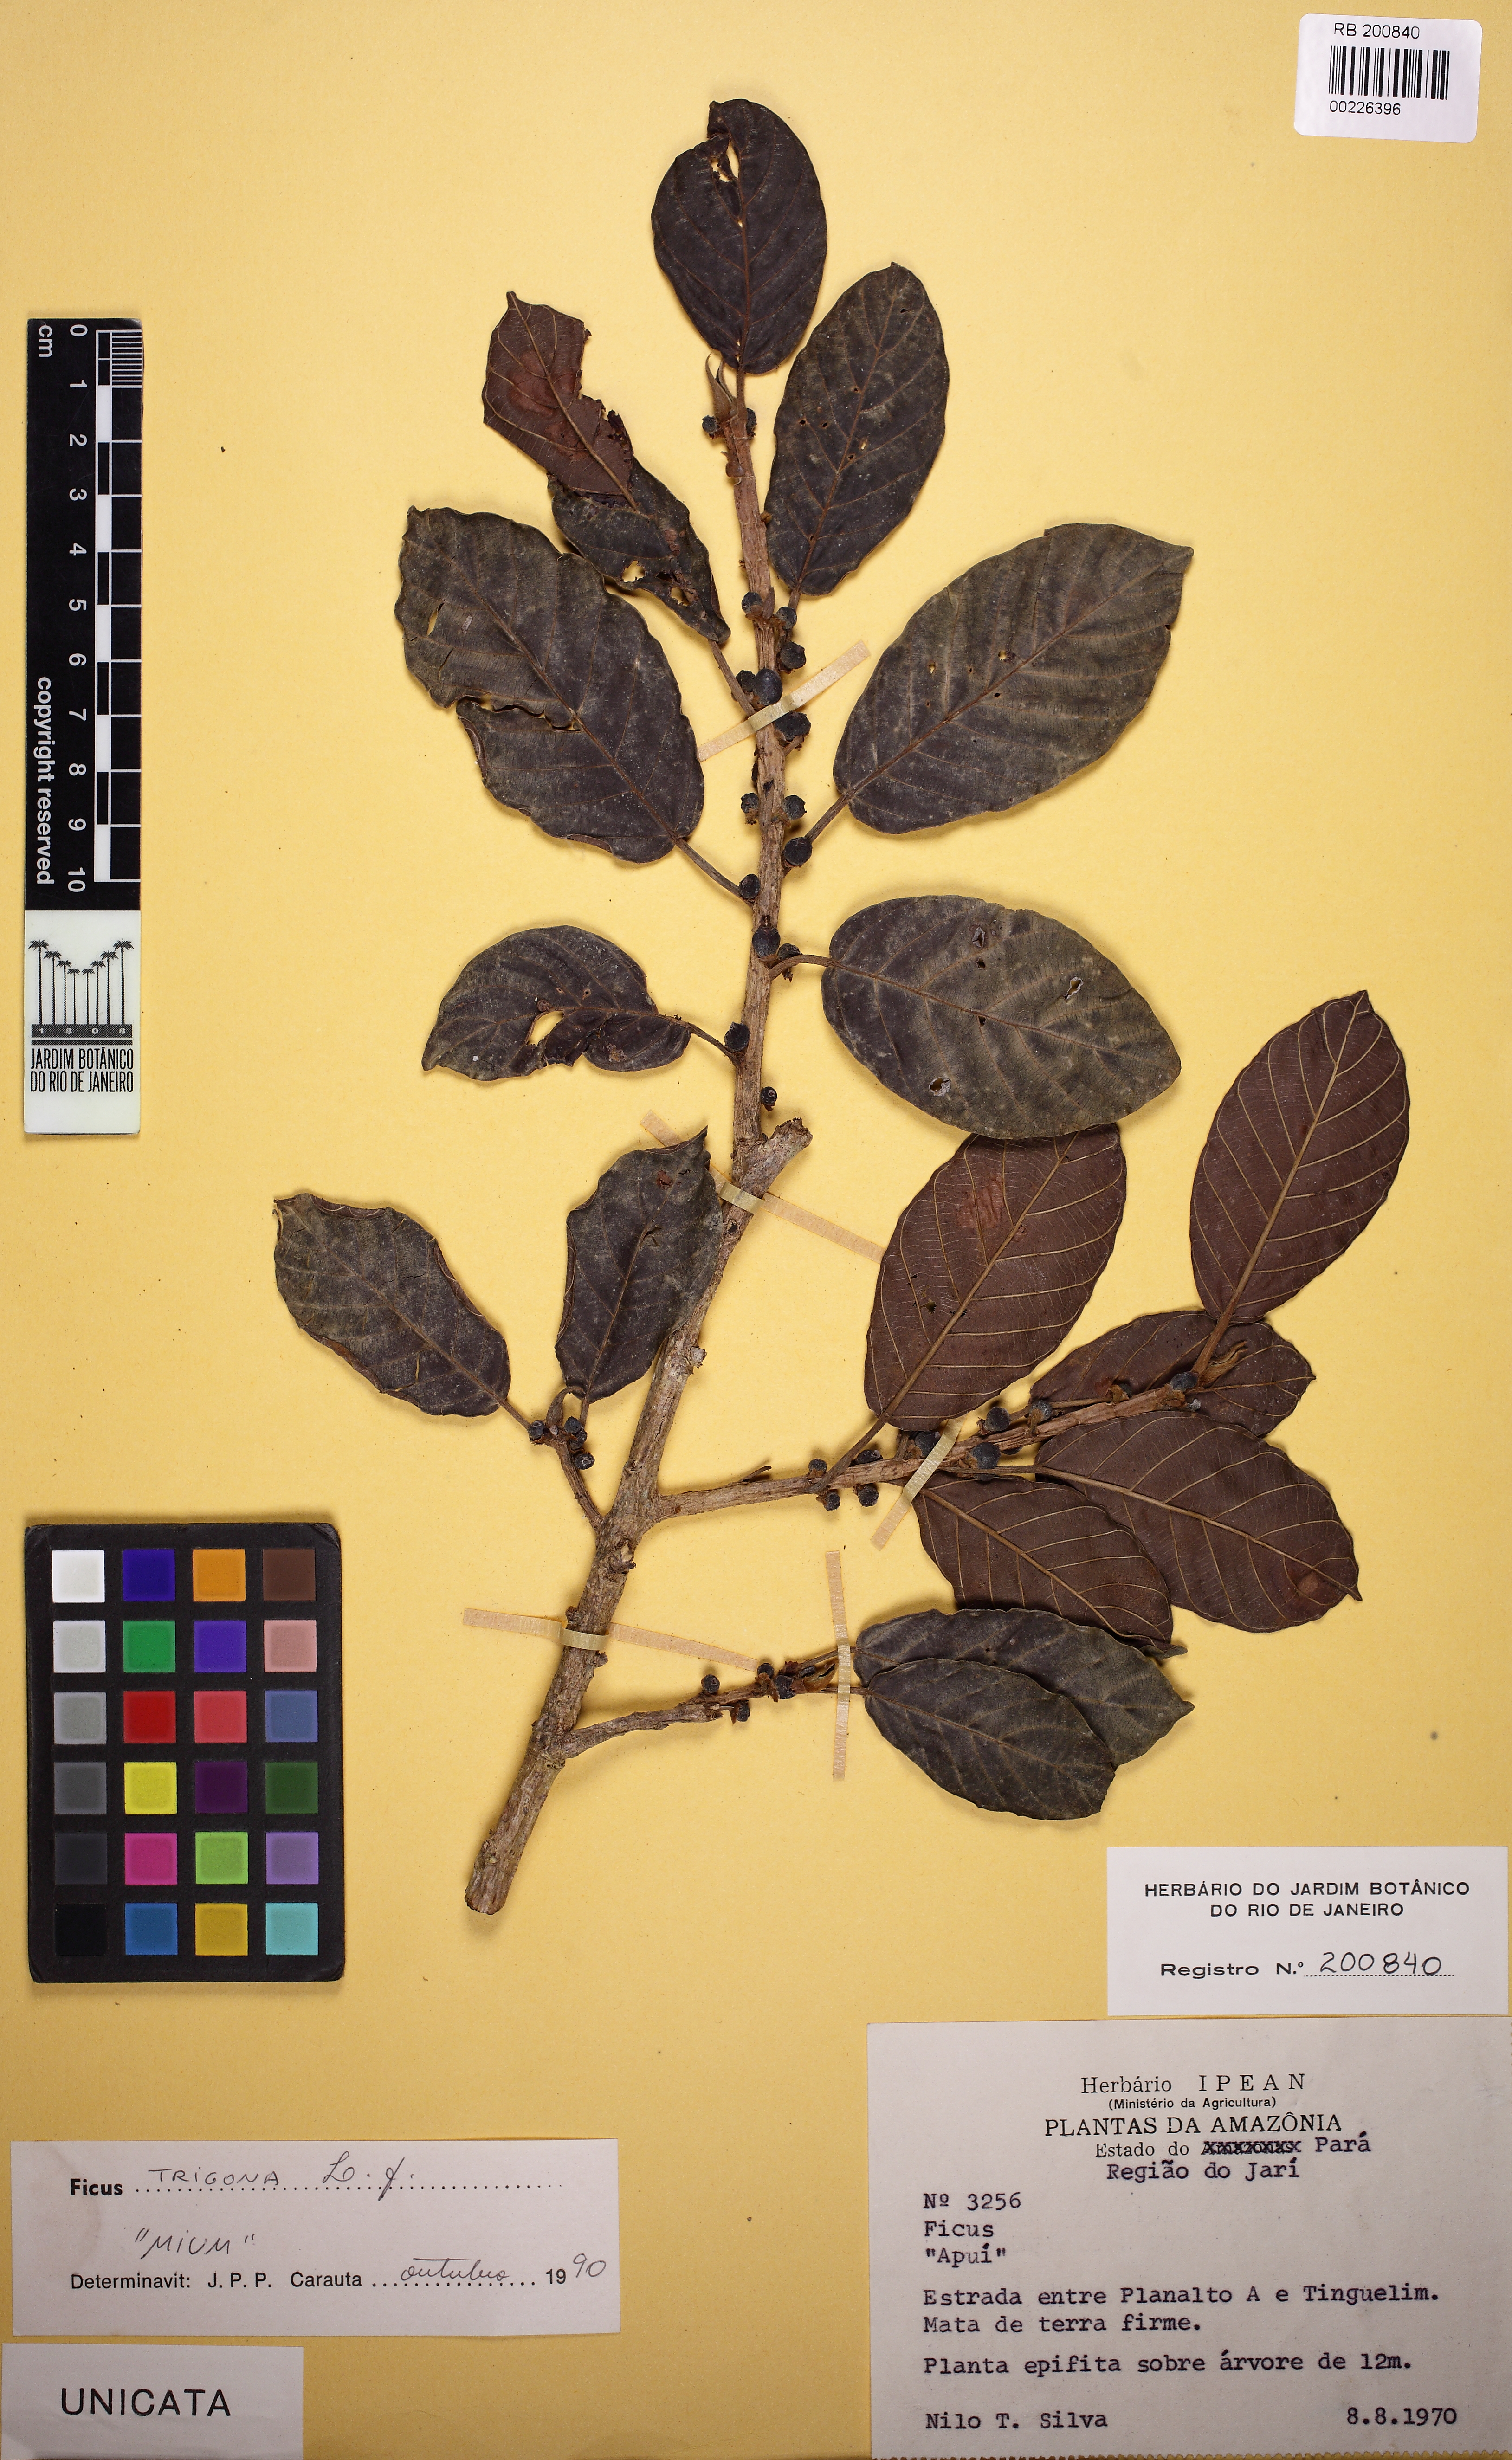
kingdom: Plantae
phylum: Tracheophyta
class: Magnoliopsida
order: Rosales
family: Moraceae
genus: Ficus
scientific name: Ficus trigona
